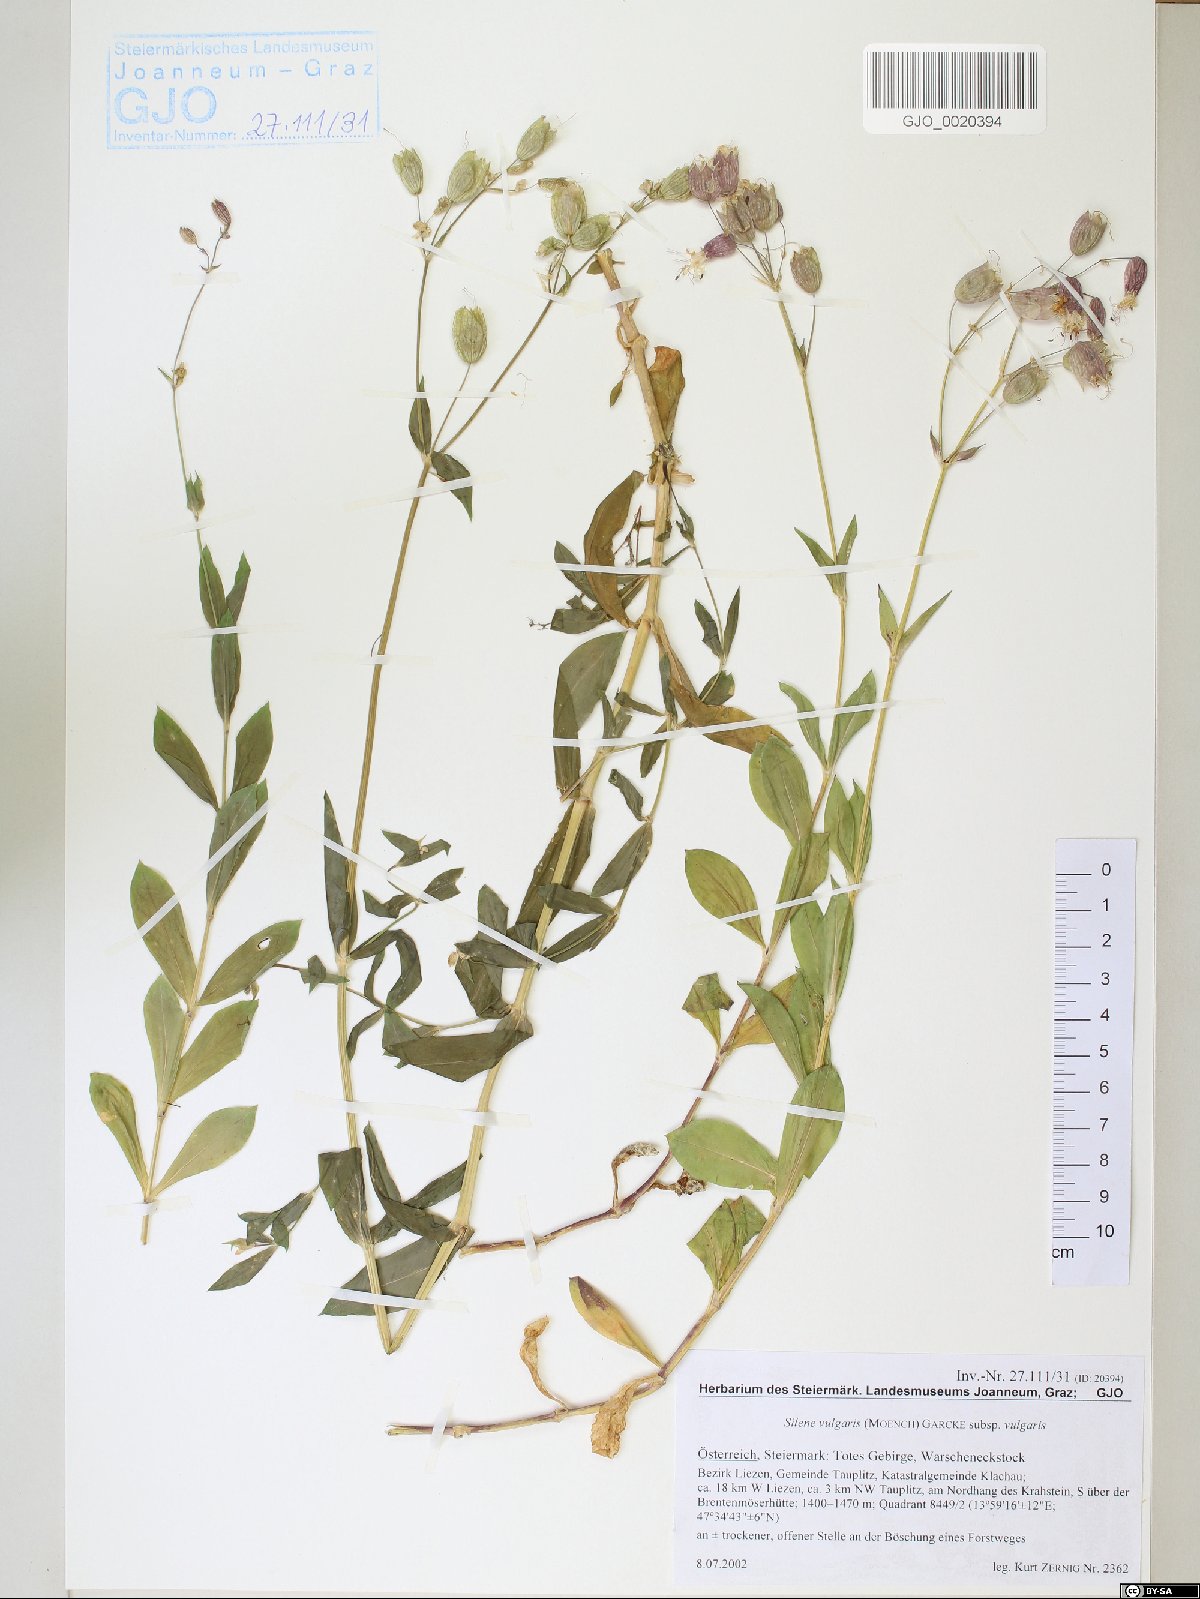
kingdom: Plantae
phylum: Tracheophyta
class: Magnoliopsida
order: Caryophyllales
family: Caryophyllaceae
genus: Silene
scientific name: Silene vulgaris
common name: Bladder campion
